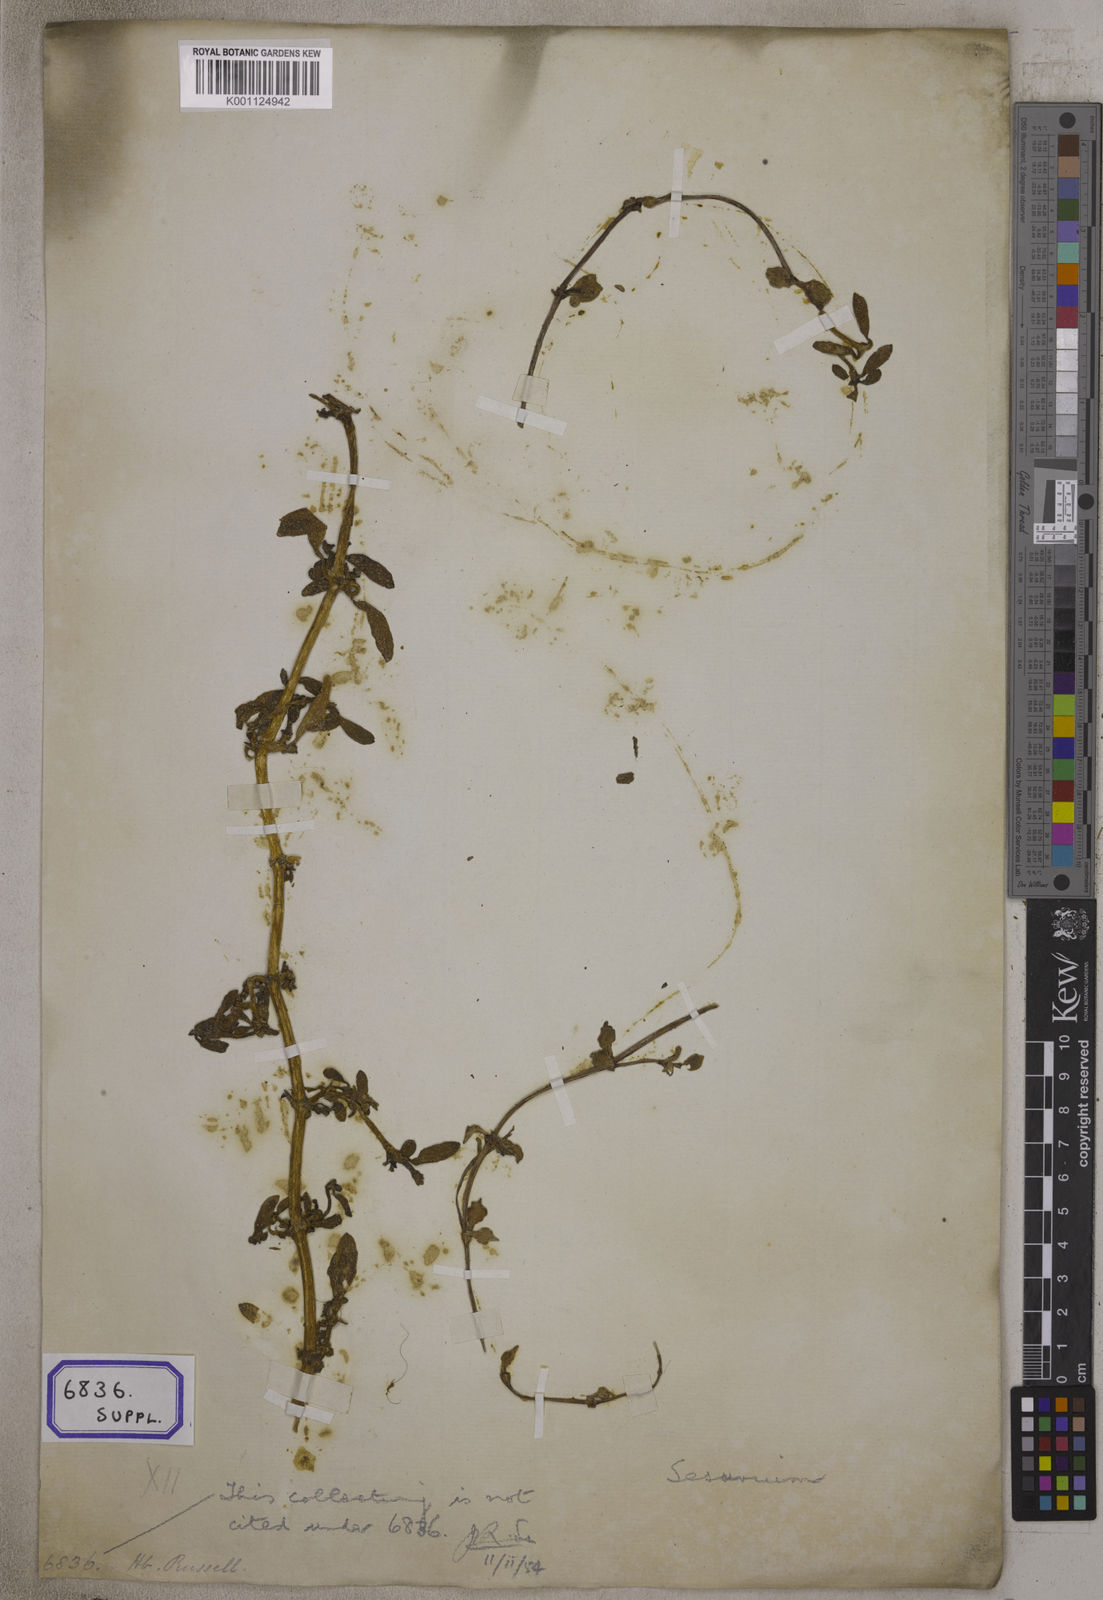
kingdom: Plantae
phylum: Tracheophyta
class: Magnoliopsida
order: Caryophyllales
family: Aizoaceae
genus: Sesuvium
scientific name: Sesuvium portulacastrum
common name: Sea-purslane
